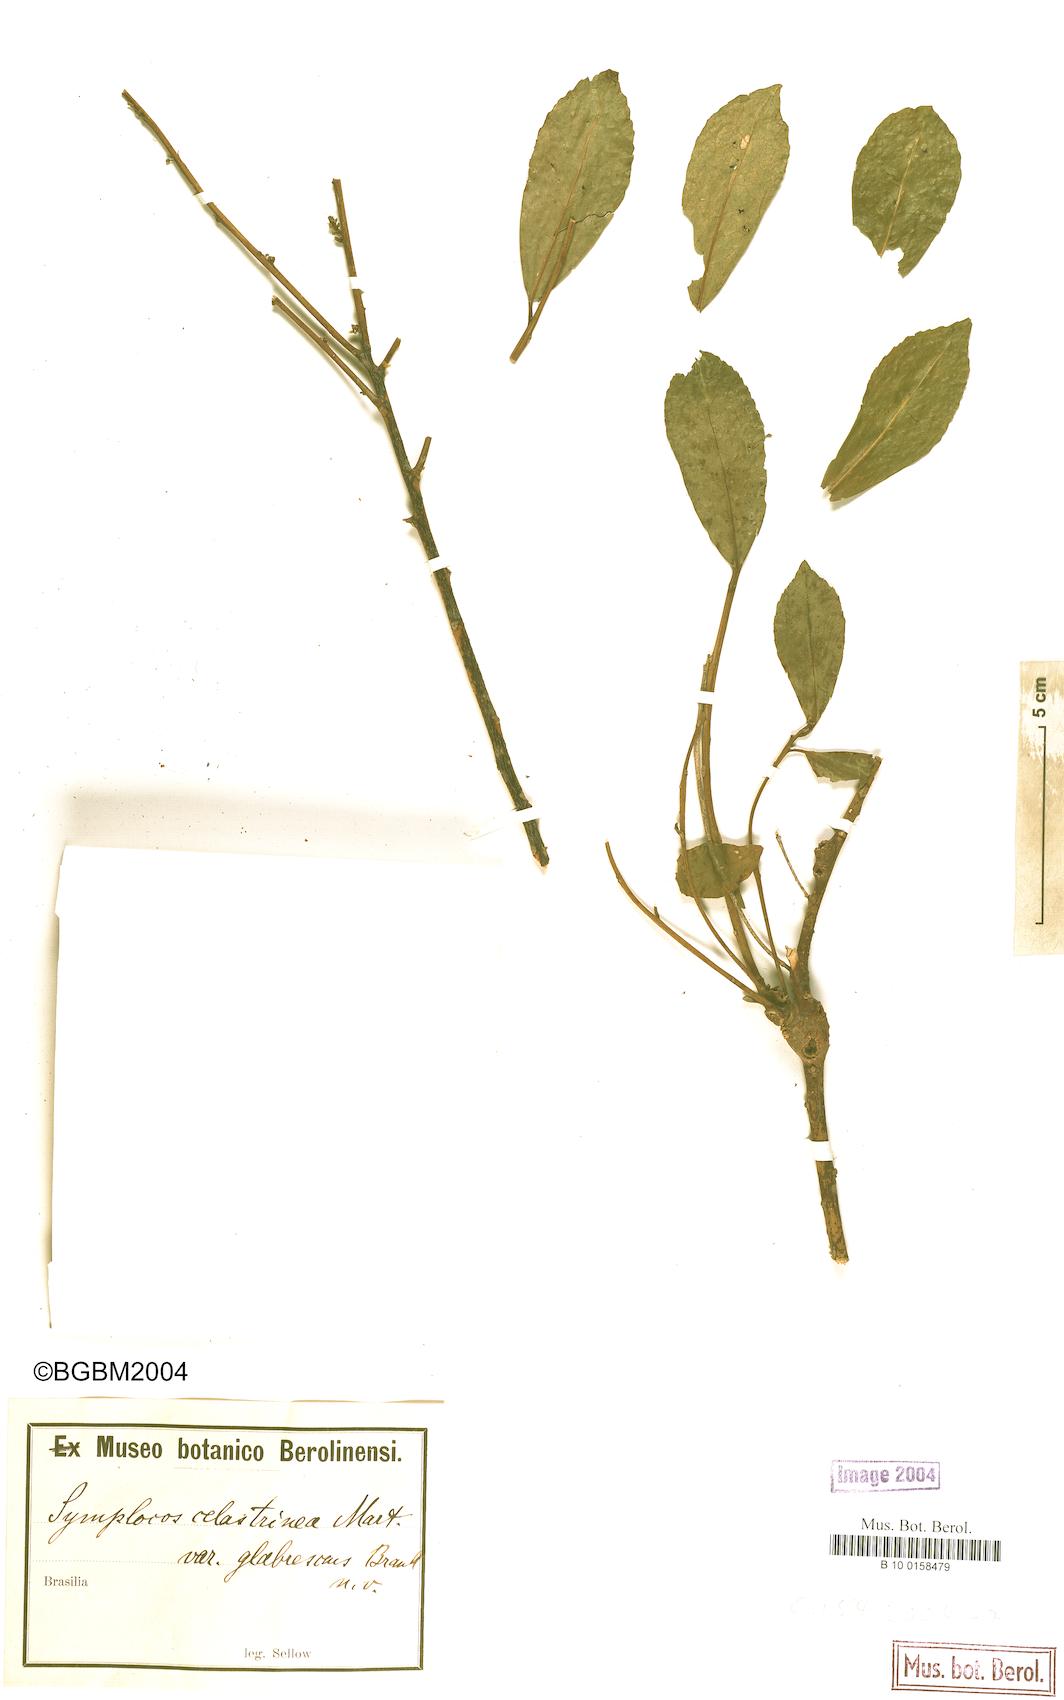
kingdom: Plantae
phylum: Tracheophyta
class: Magnoliopsida
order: Ericales
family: Symplocaceae
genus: Symplocos
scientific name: Symplocos celastrinea
